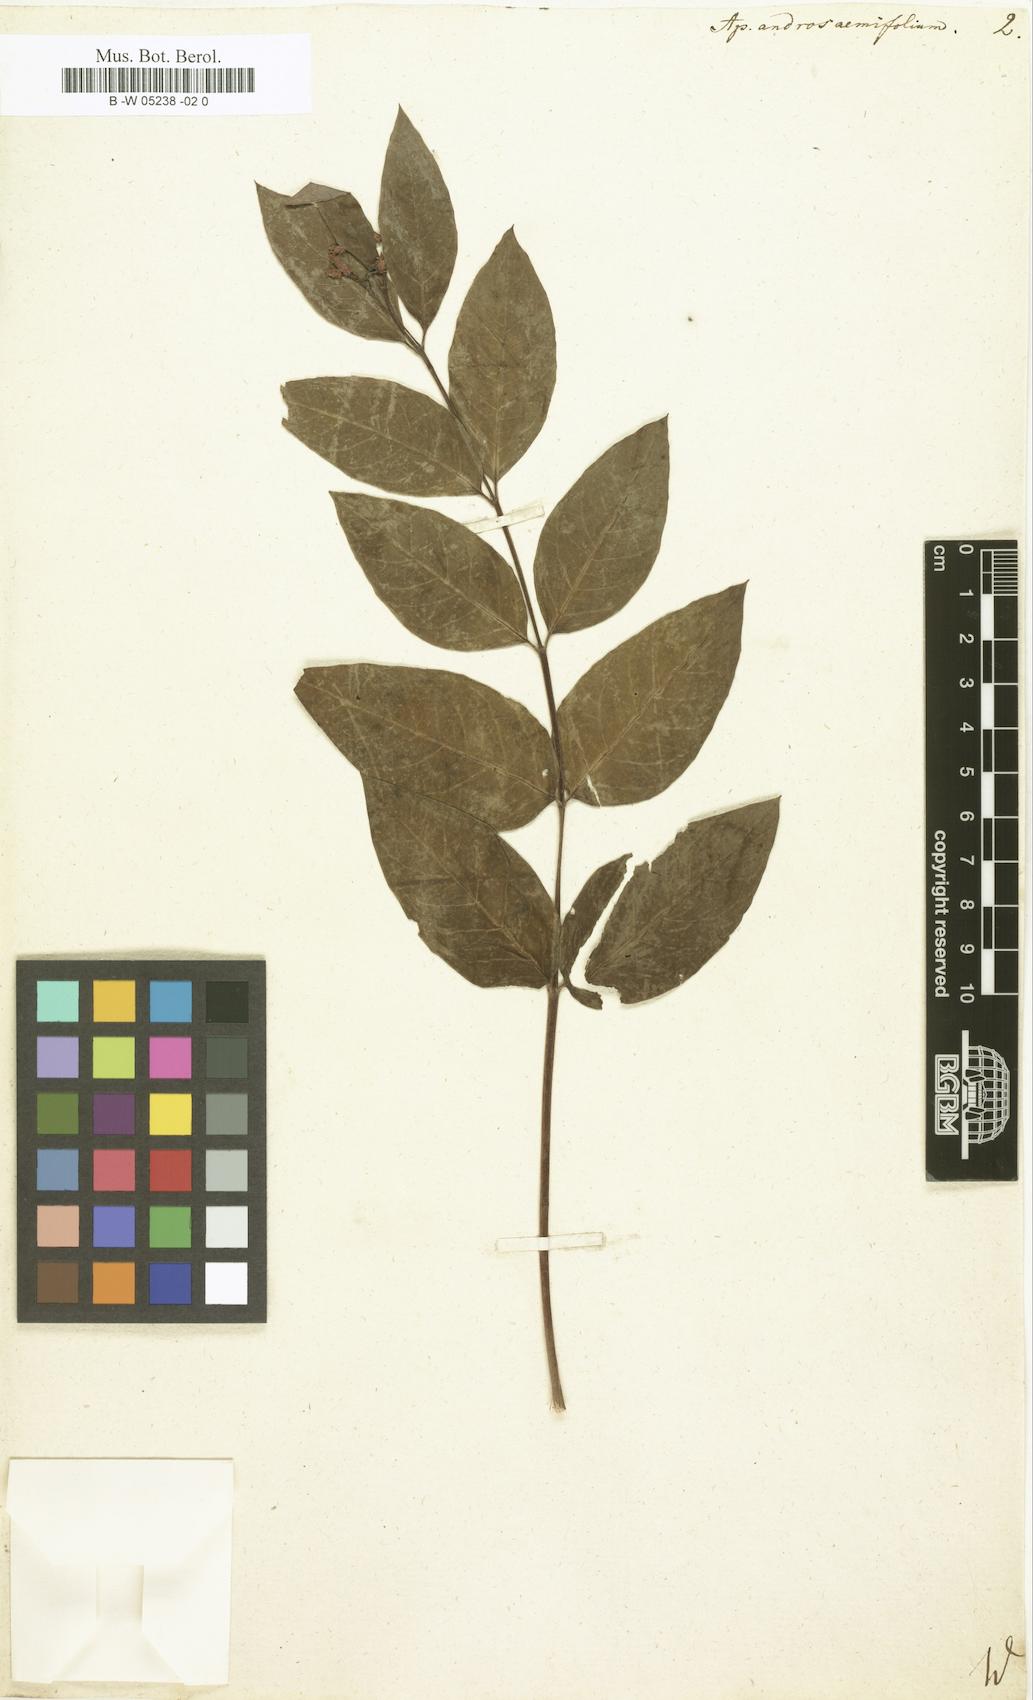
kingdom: Plantae
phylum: Tracheophyta
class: Magnoliopsida
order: Gentianales
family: Apocynaceae
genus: Apocynum
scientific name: Apocynum androsaemifolium
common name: Spreading dogbane
